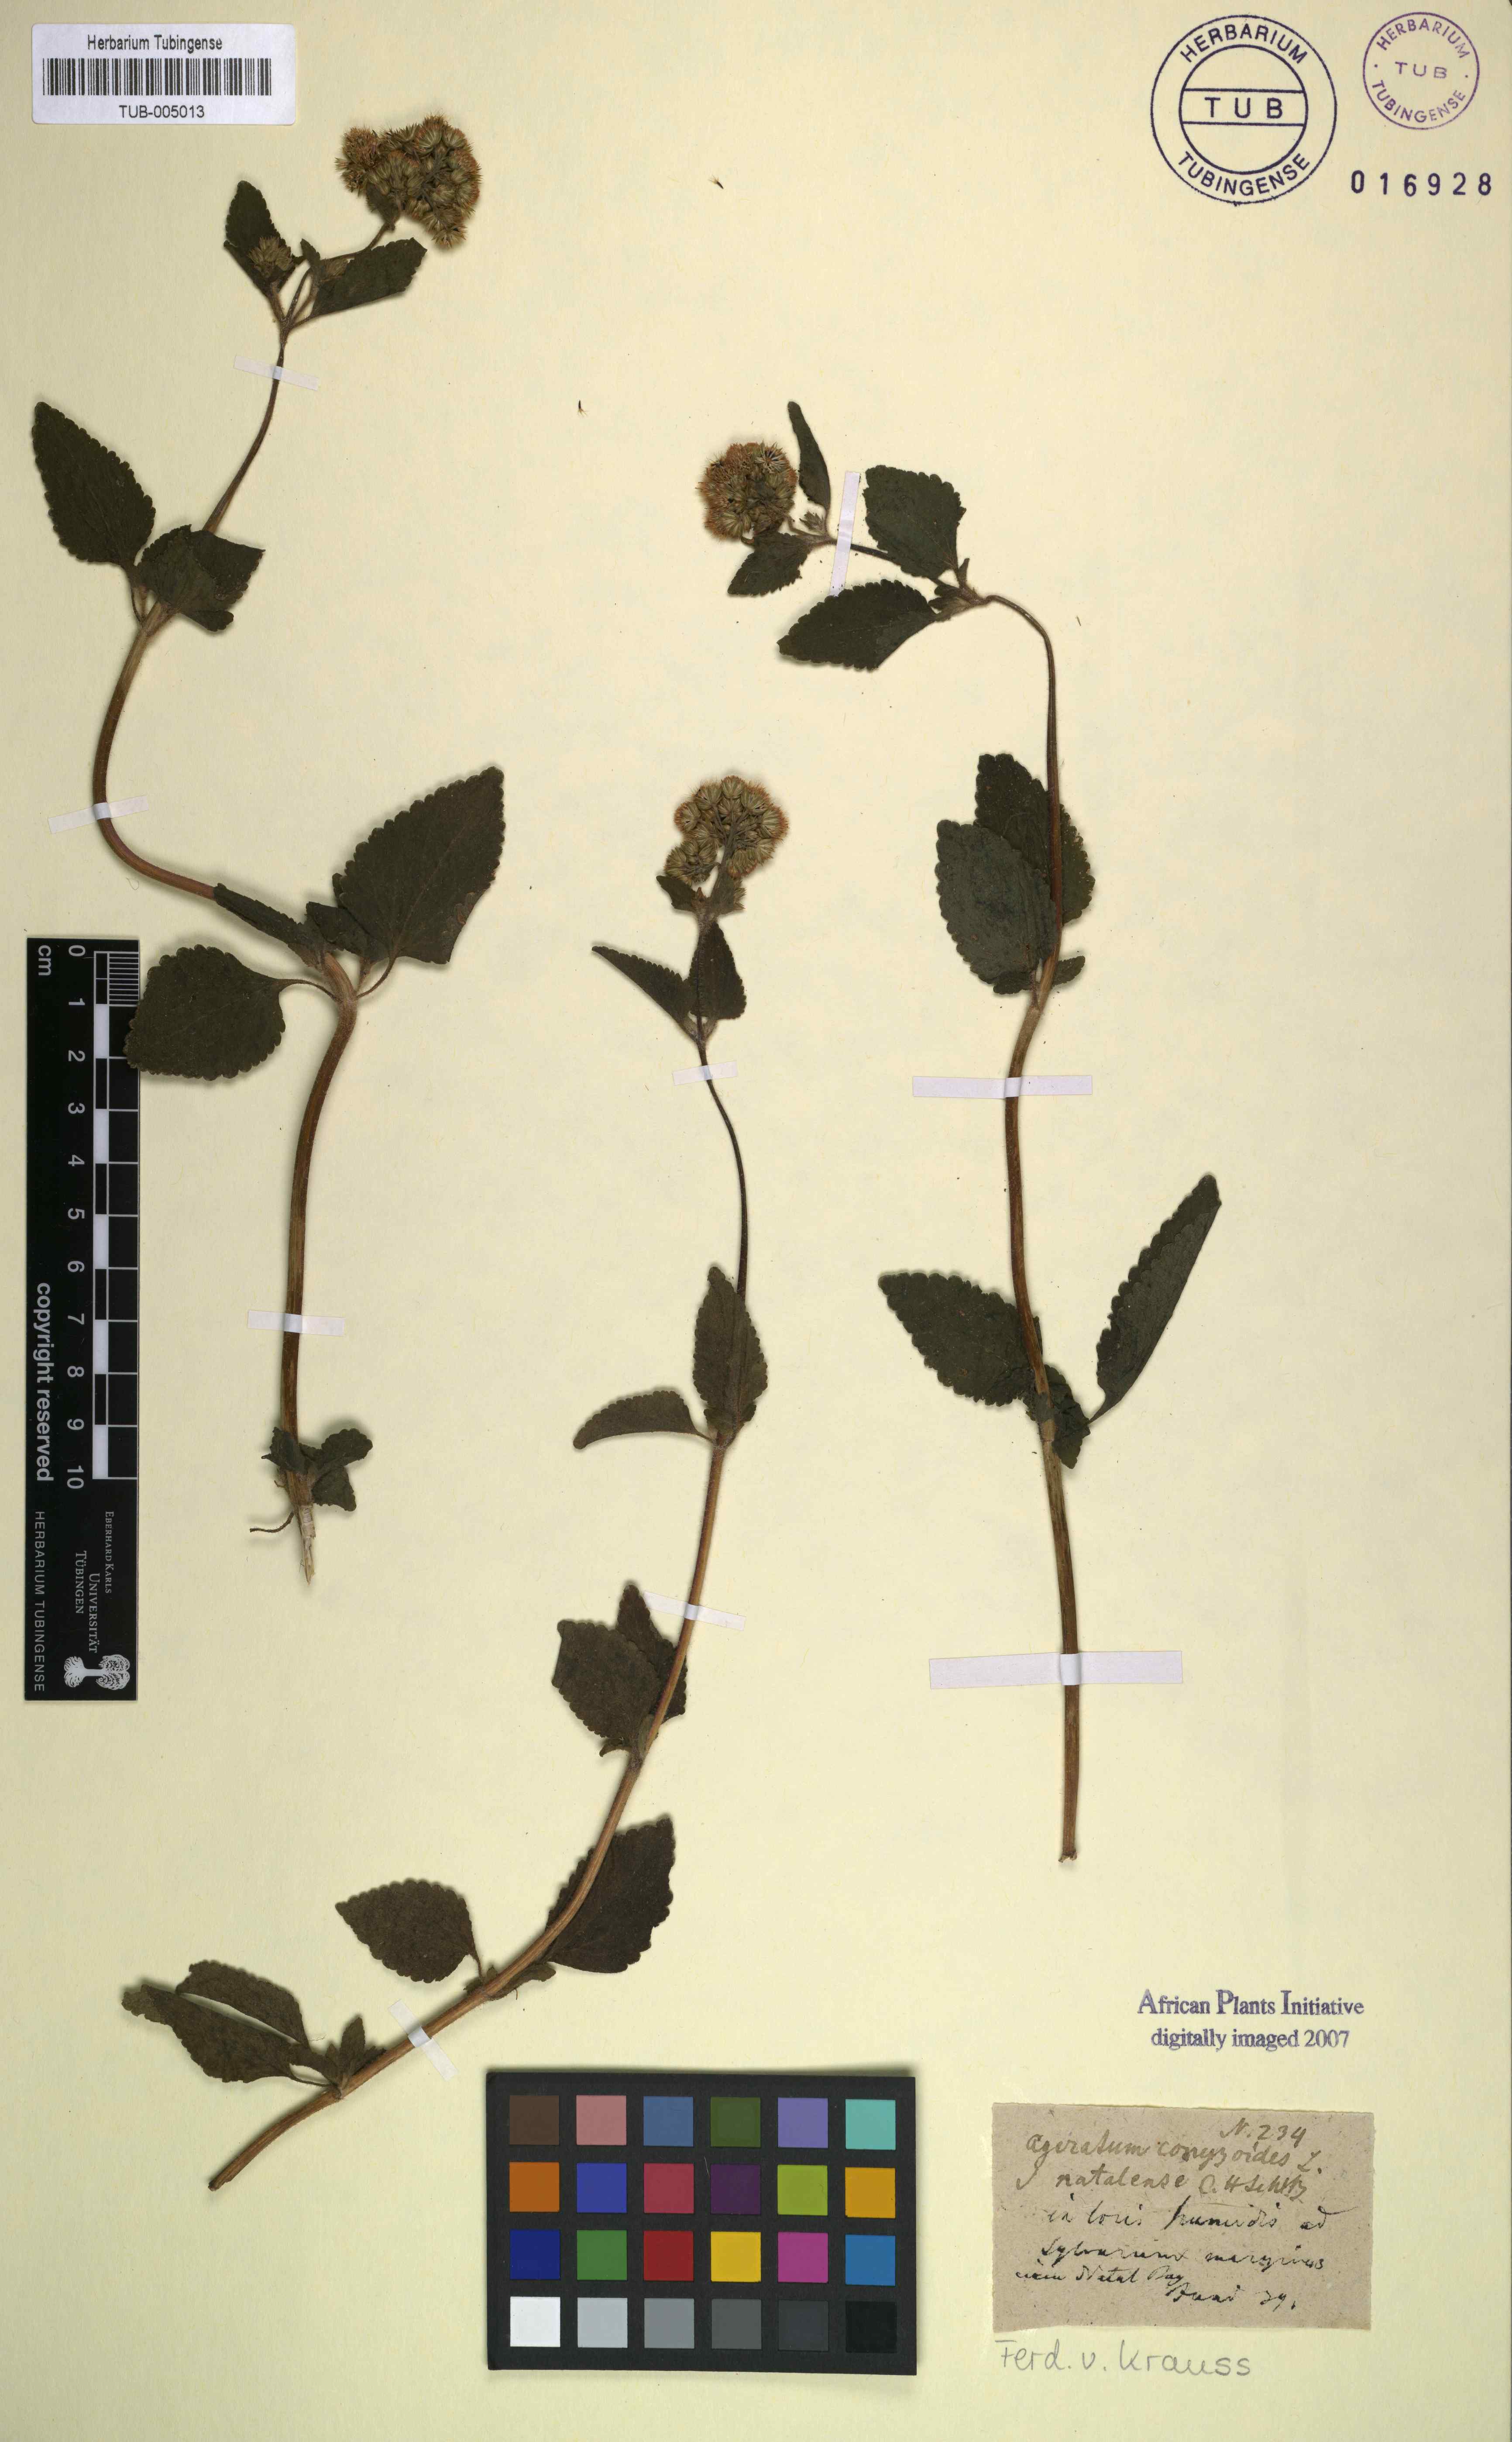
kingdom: Plantae
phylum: Tracheophyta
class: Magnoliopsida
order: Asterales
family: Asteraceae
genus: Ageratum
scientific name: Ageratum conyzoides
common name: Tropical whiteweed
